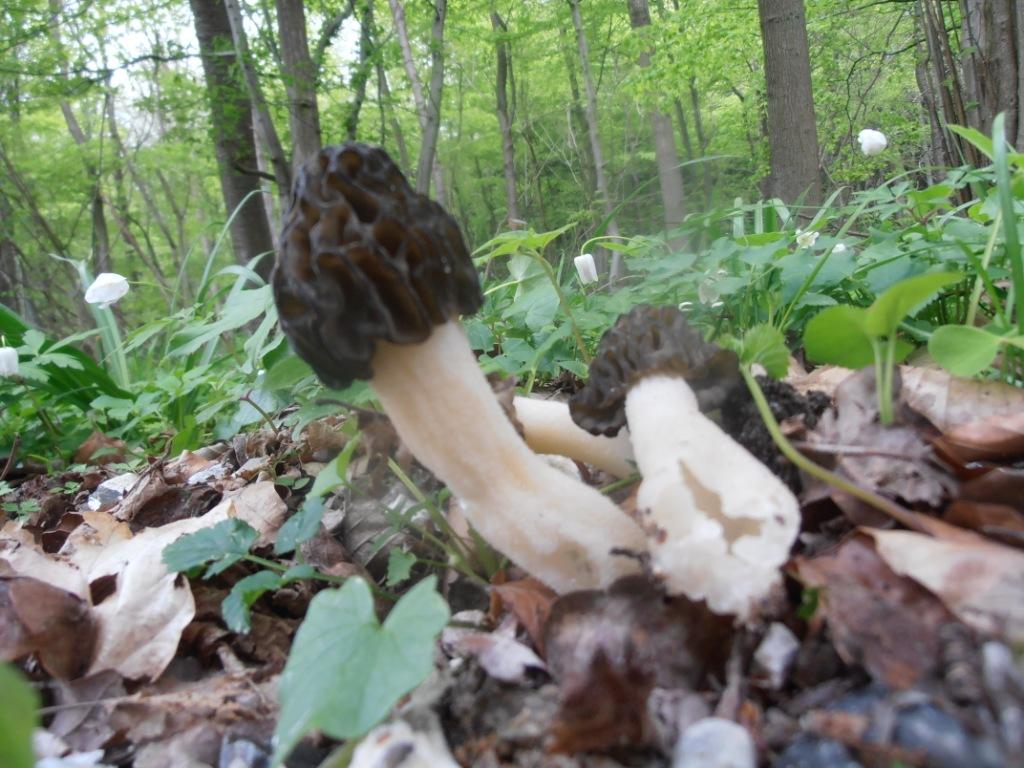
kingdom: Fungi
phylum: Ascomycota
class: Pezizomycetes
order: Pezizales
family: Morchellaceae
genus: Morchella
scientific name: Morchella semilibera
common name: hætte-morkel
